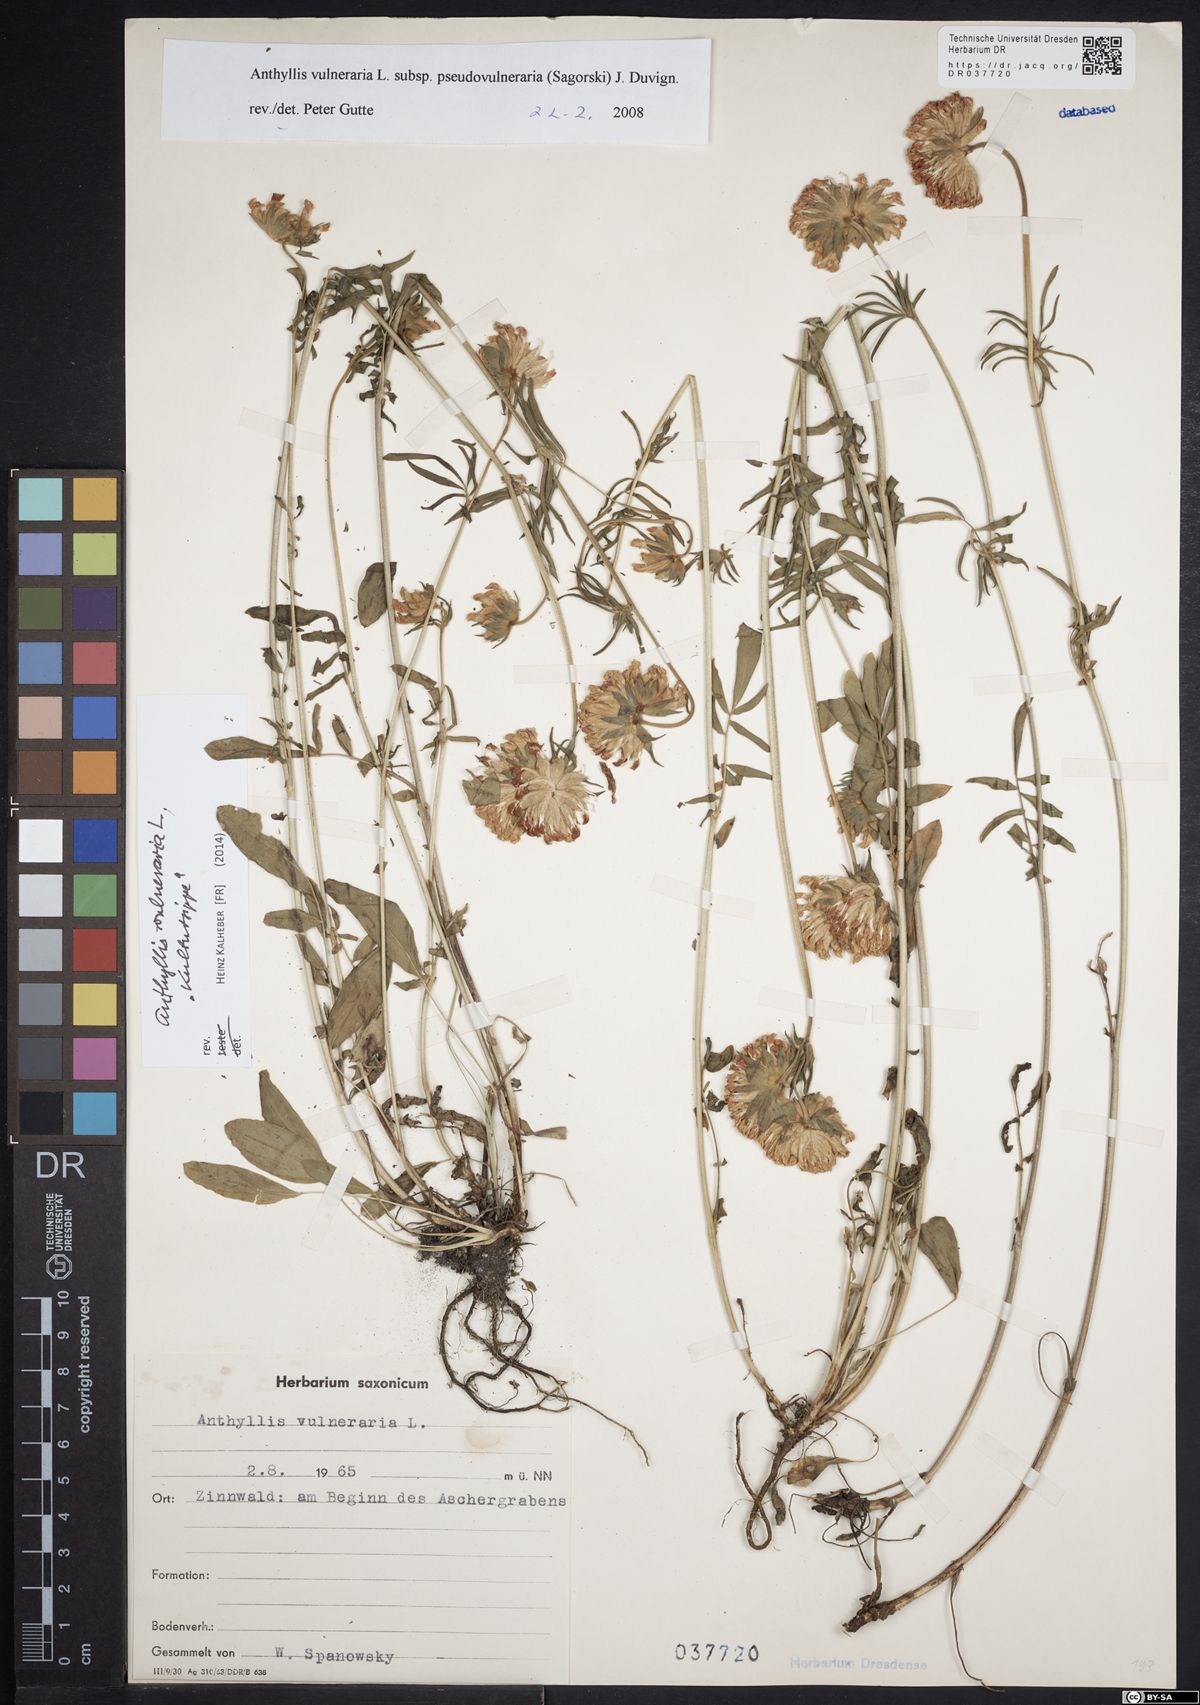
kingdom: Plantae
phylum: Tracheophyta
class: Magnoliopsida
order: Fabales
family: Fabaceae
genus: Anthyllis
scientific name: Anthyllis vulneraria
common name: Kidney vetch
